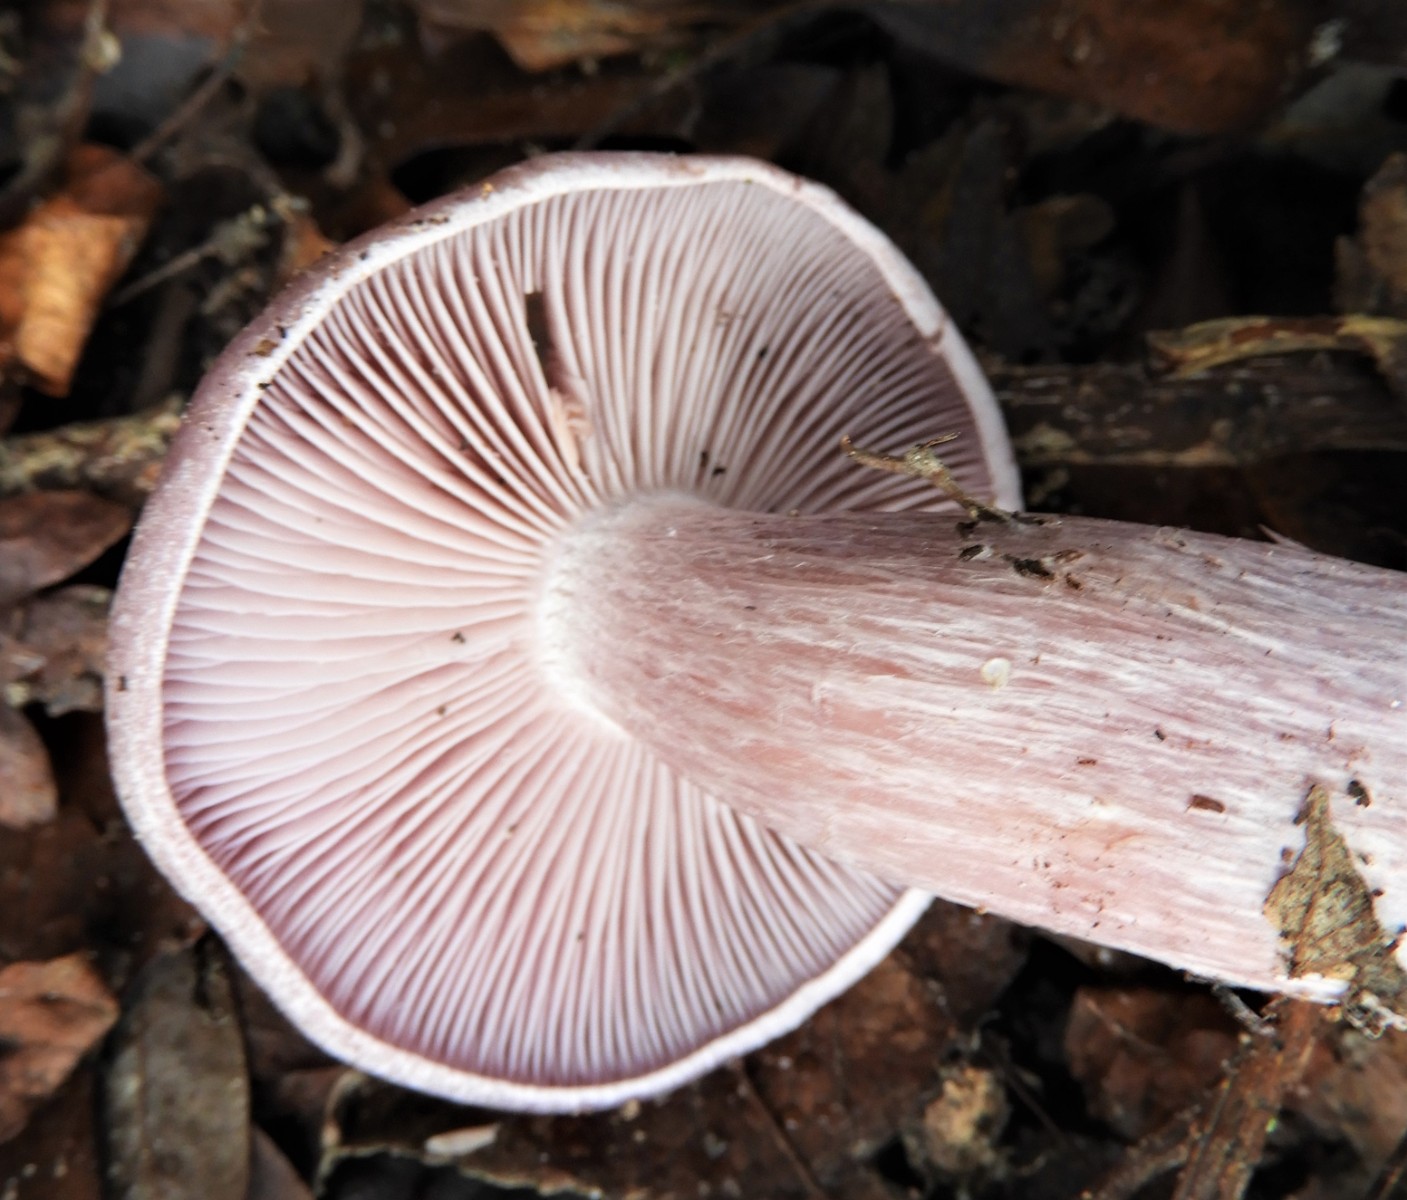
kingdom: Fungi
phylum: Basidiomycota
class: Agaricomycetes
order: Agaricales
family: Tricholomataceae
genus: Lepista
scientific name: Lepista nuda
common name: violet hekseringshat
